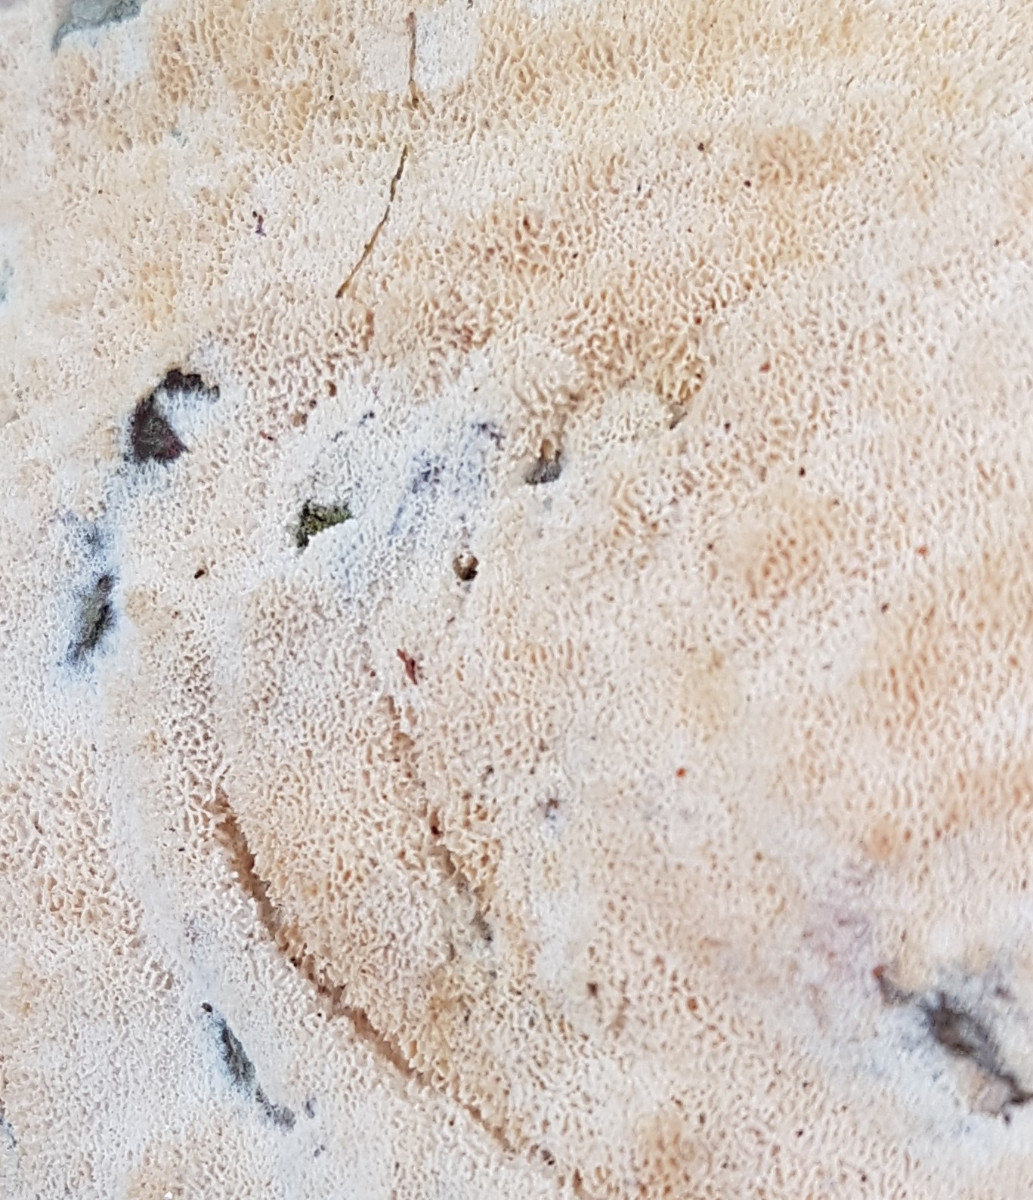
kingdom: Fungi
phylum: Basidiomycota
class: Agaricomycetes
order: Polyporales
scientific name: Polyporales
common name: poresvampordenen
